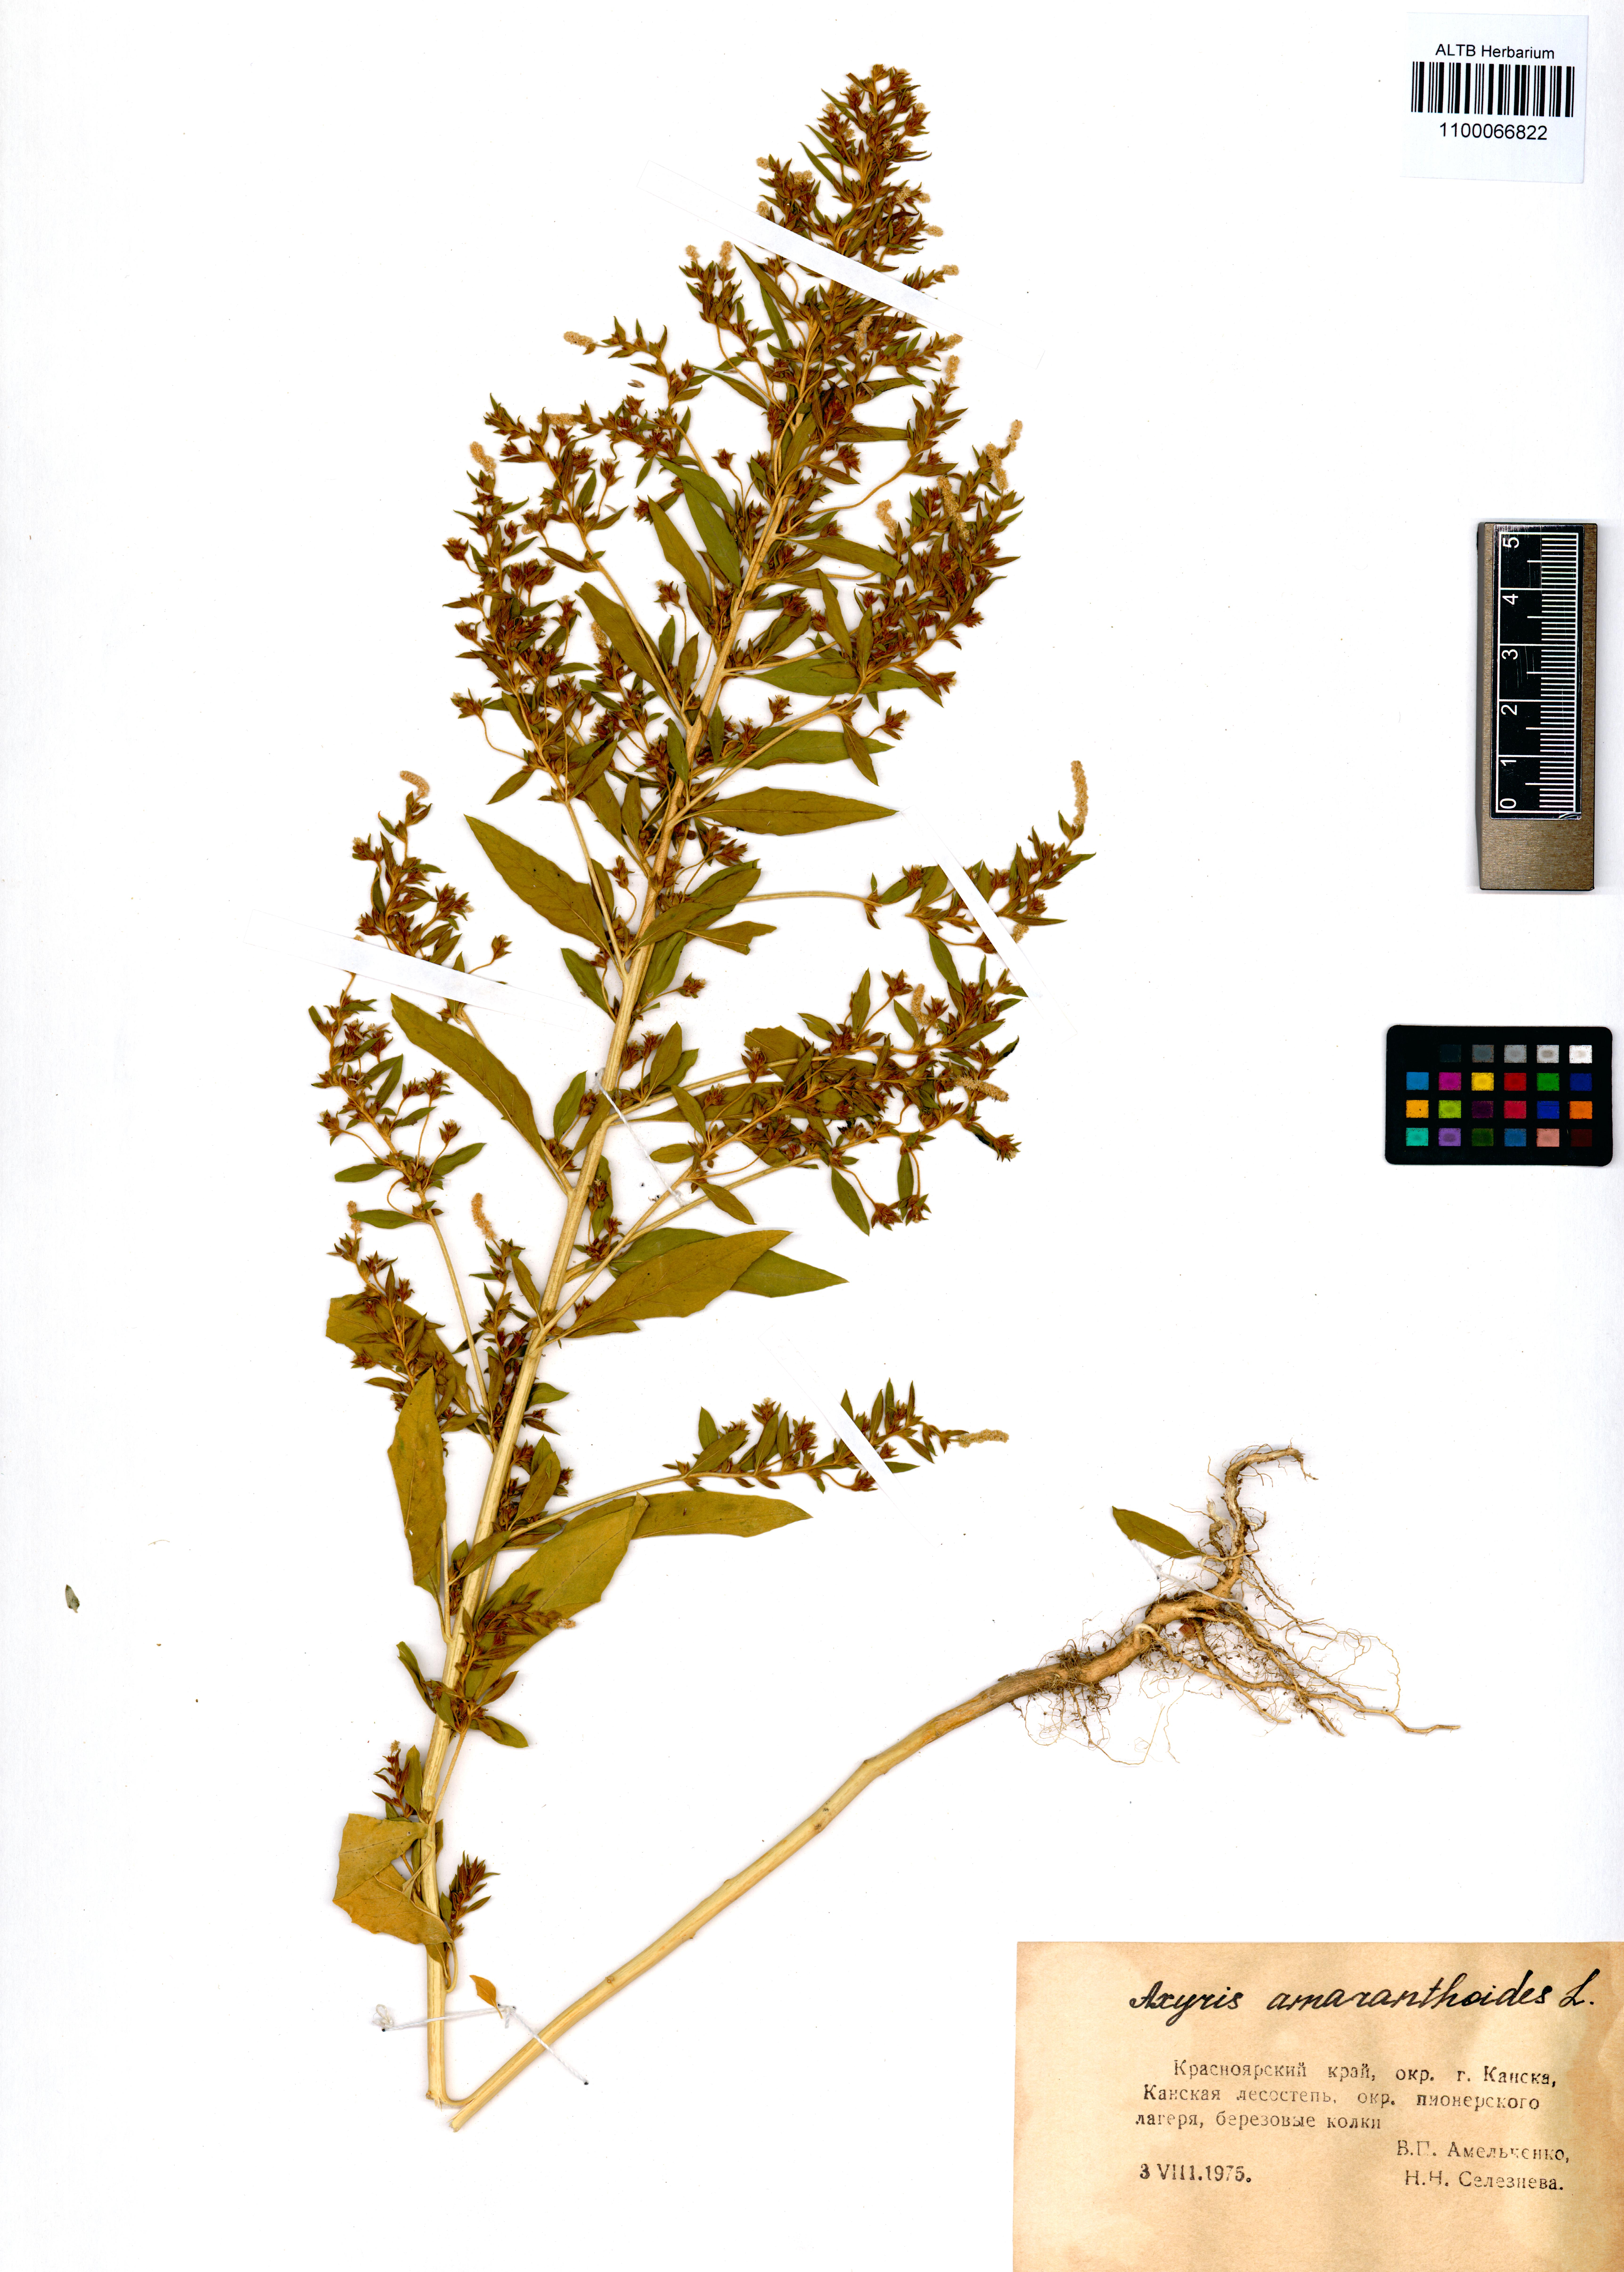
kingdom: Plantae
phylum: Tracheophyta
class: Magnoliopsida
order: Caryophyllales
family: Amaranthaceae
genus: Axyris
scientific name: Axyris amaranthoides
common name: Russian pigweed
